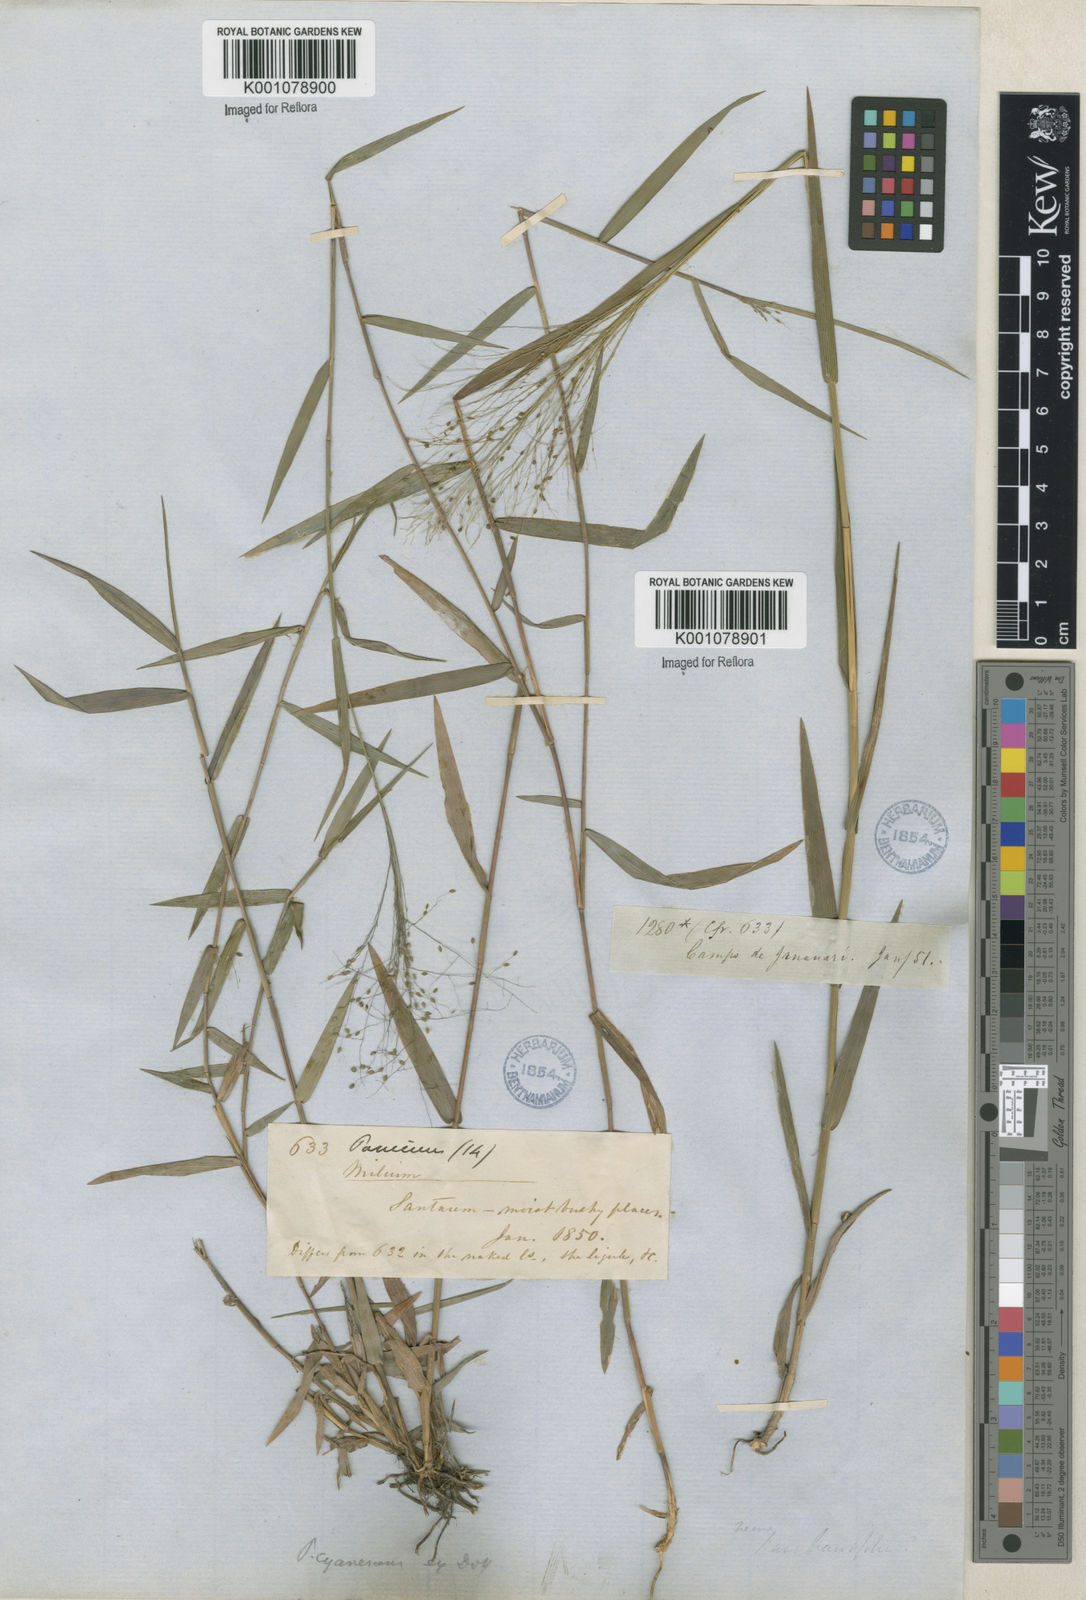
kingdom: Plantae
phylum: Tracheophyta
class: Liliopsida
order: Poales
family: Poaceae
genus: Trichanthecium
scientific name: Trichanthecium cyanescens
